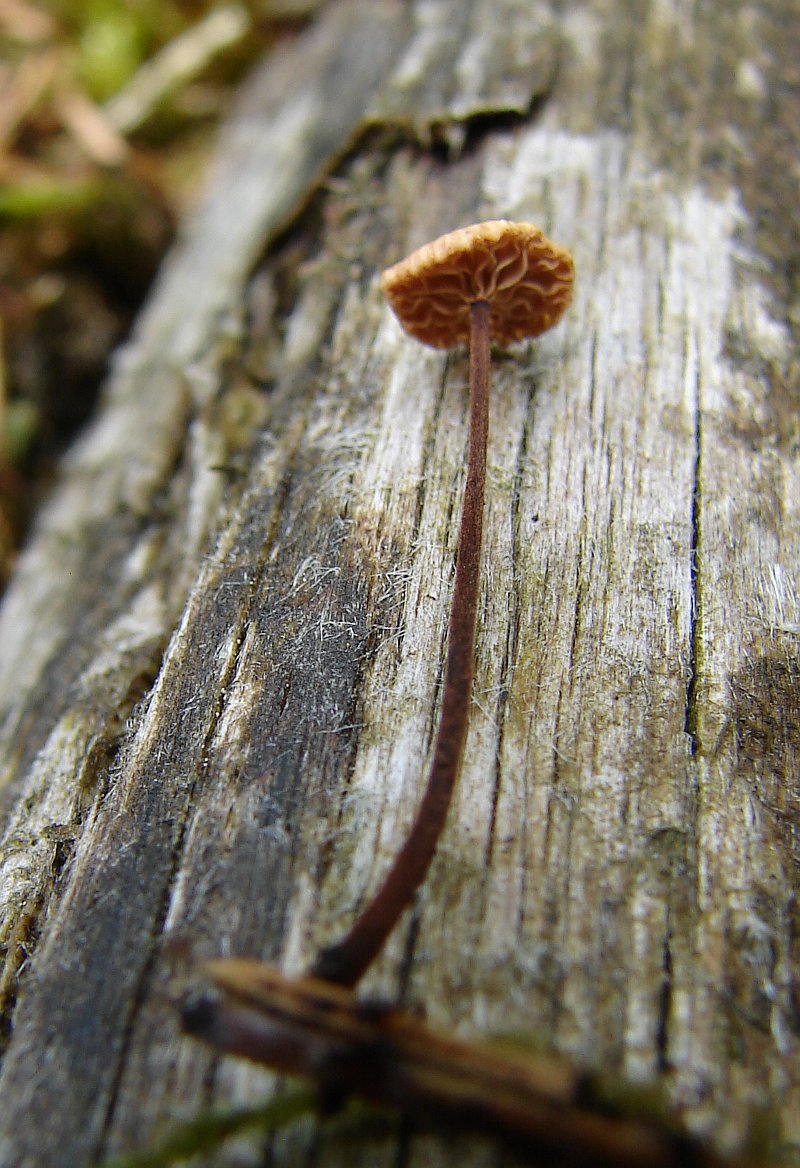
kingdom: Fungi
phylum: Basidiomycota
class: Agaricomycetes
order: Agaricales
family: Omphalotaceae
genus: Paragymnopus
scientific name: Paragymnopus perforans
